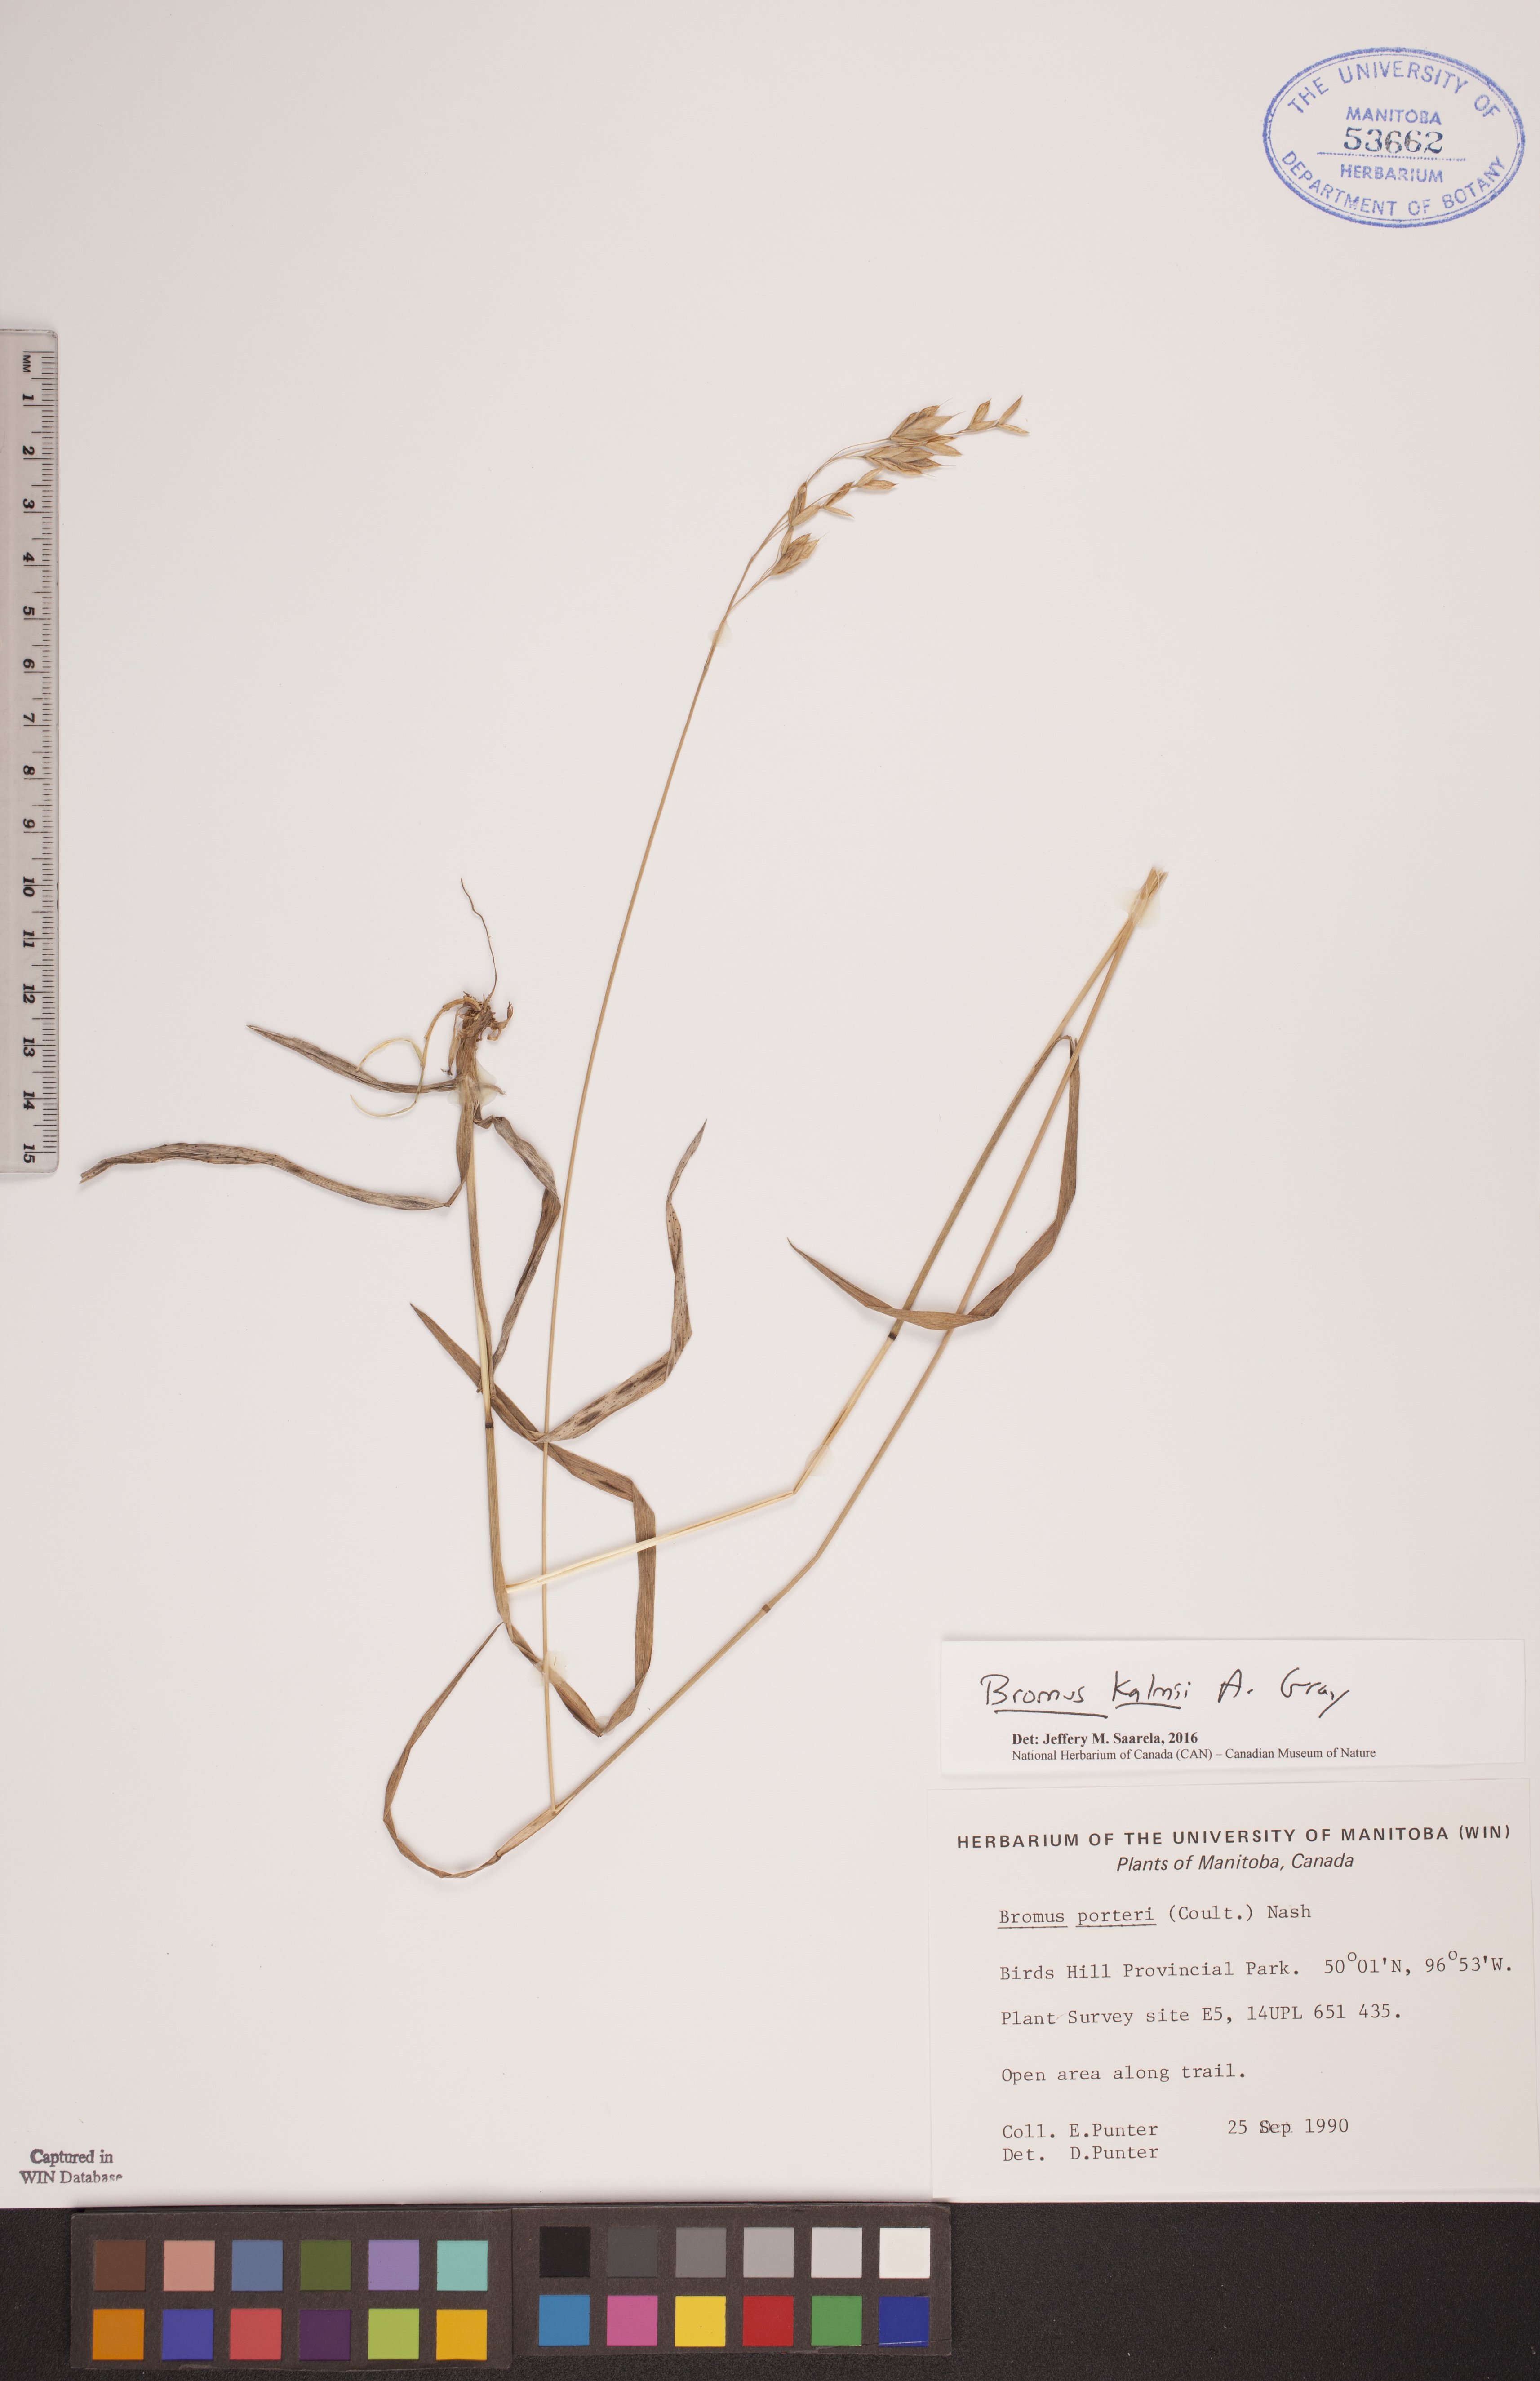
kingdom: Plantae
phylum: Tracheophyta
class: Liliopsida
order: Poales
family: Poaceae
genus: Bromus
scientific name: Bromus kalmii
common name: Kalm brome
